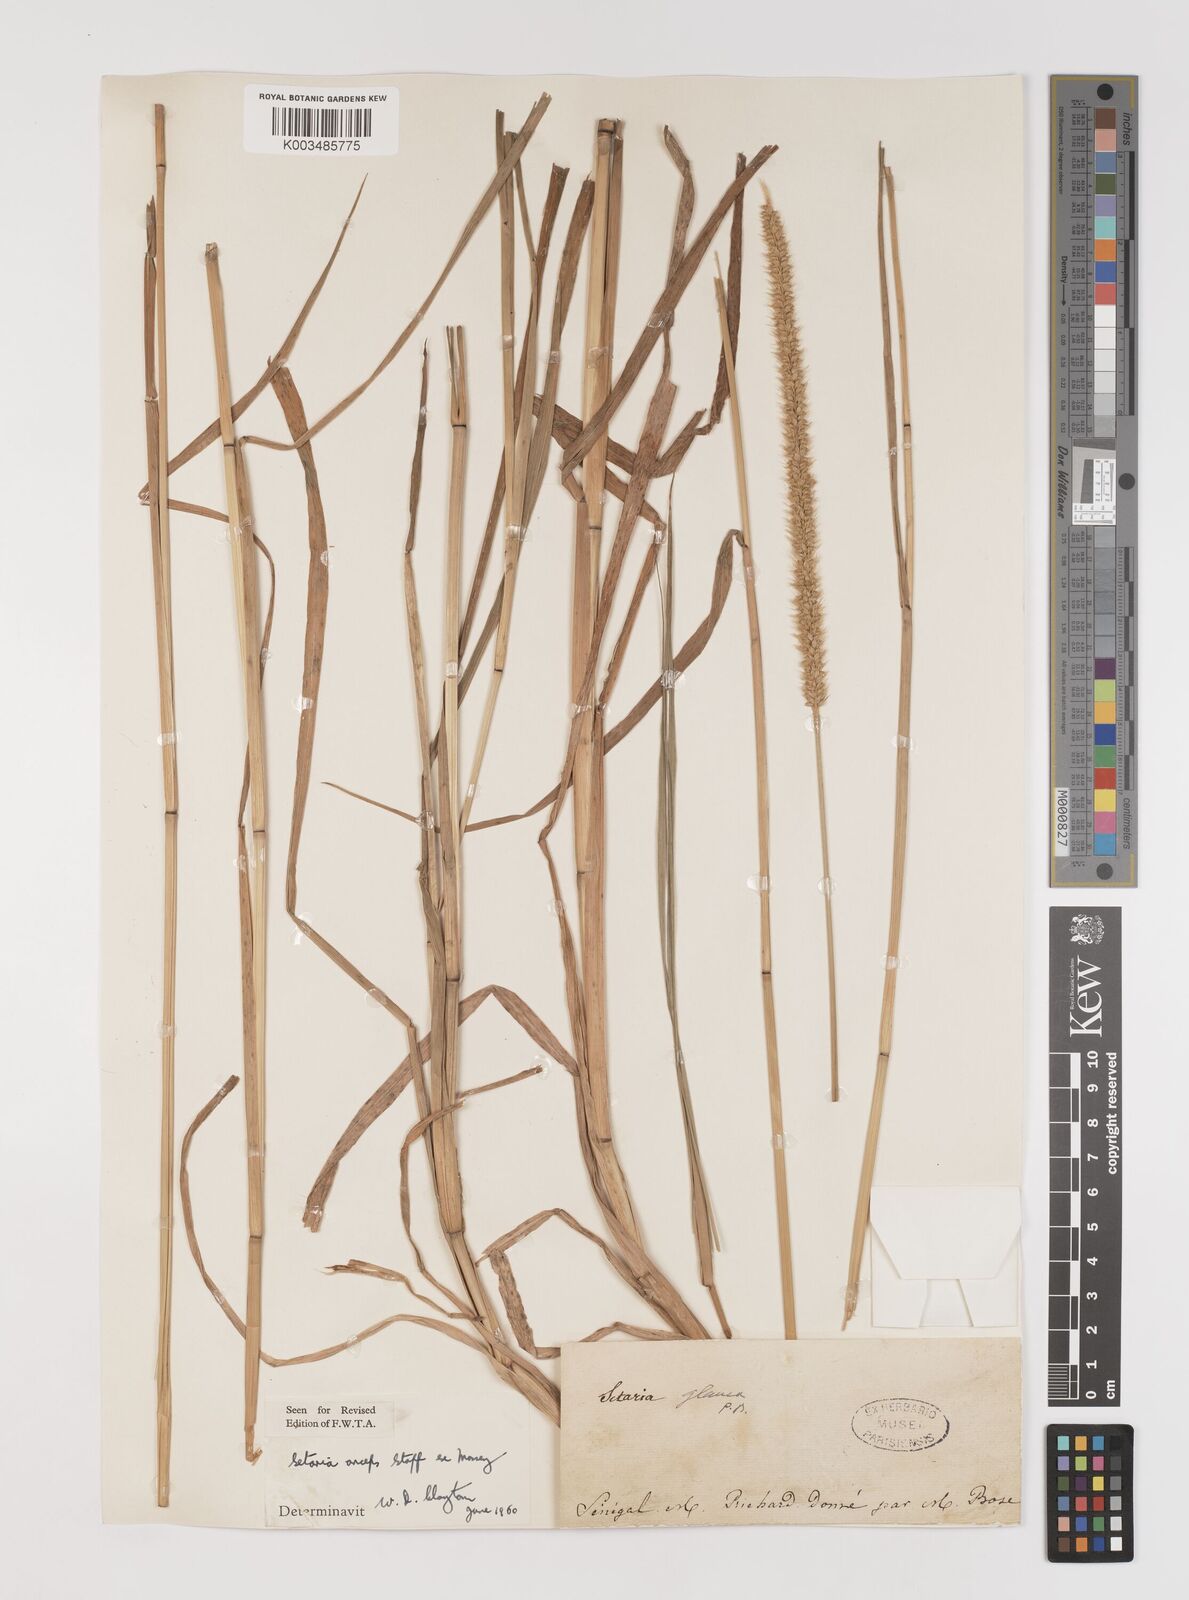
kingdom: Plantae
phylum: Tracheophyta
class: Liliopsida
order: Poales
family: Poaceae
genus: Setaria
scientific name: Setaria sphacelata
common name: African bristlegrass
